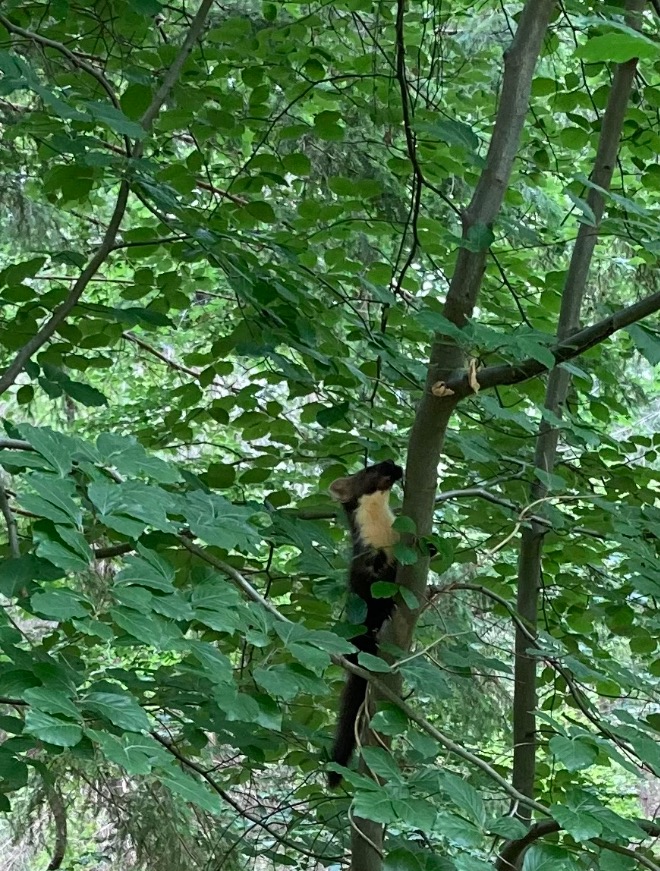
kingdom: Animalia
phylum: Chordata
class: Mammalia
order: Carnivora
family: Mustelidae
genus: Martes
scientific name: Martes martes
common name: Skovmår
